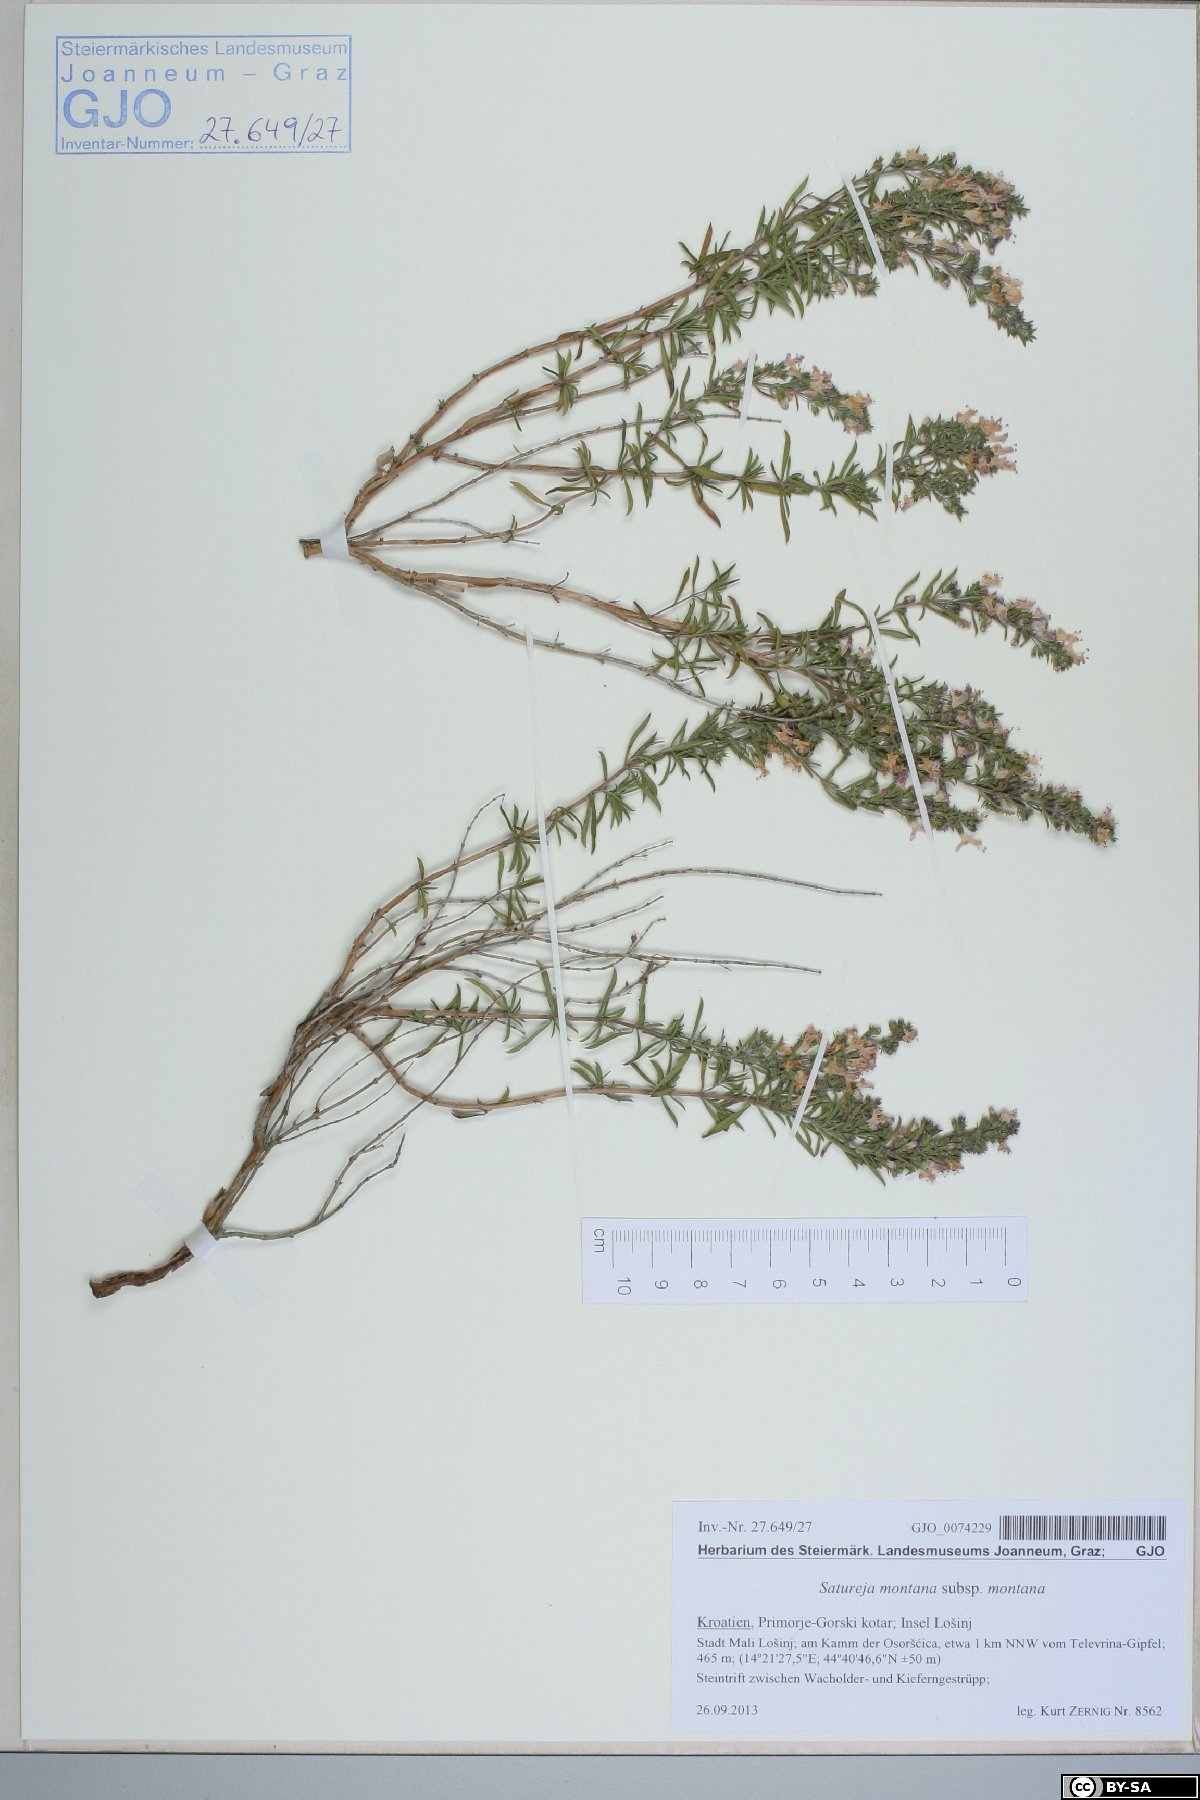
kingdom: Plantae
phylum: Tracheophyta
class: Magnoliopsida
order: Lamiales
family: Lamiaceae
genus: Satureja
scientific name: Satureja montana
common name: Winter savory
